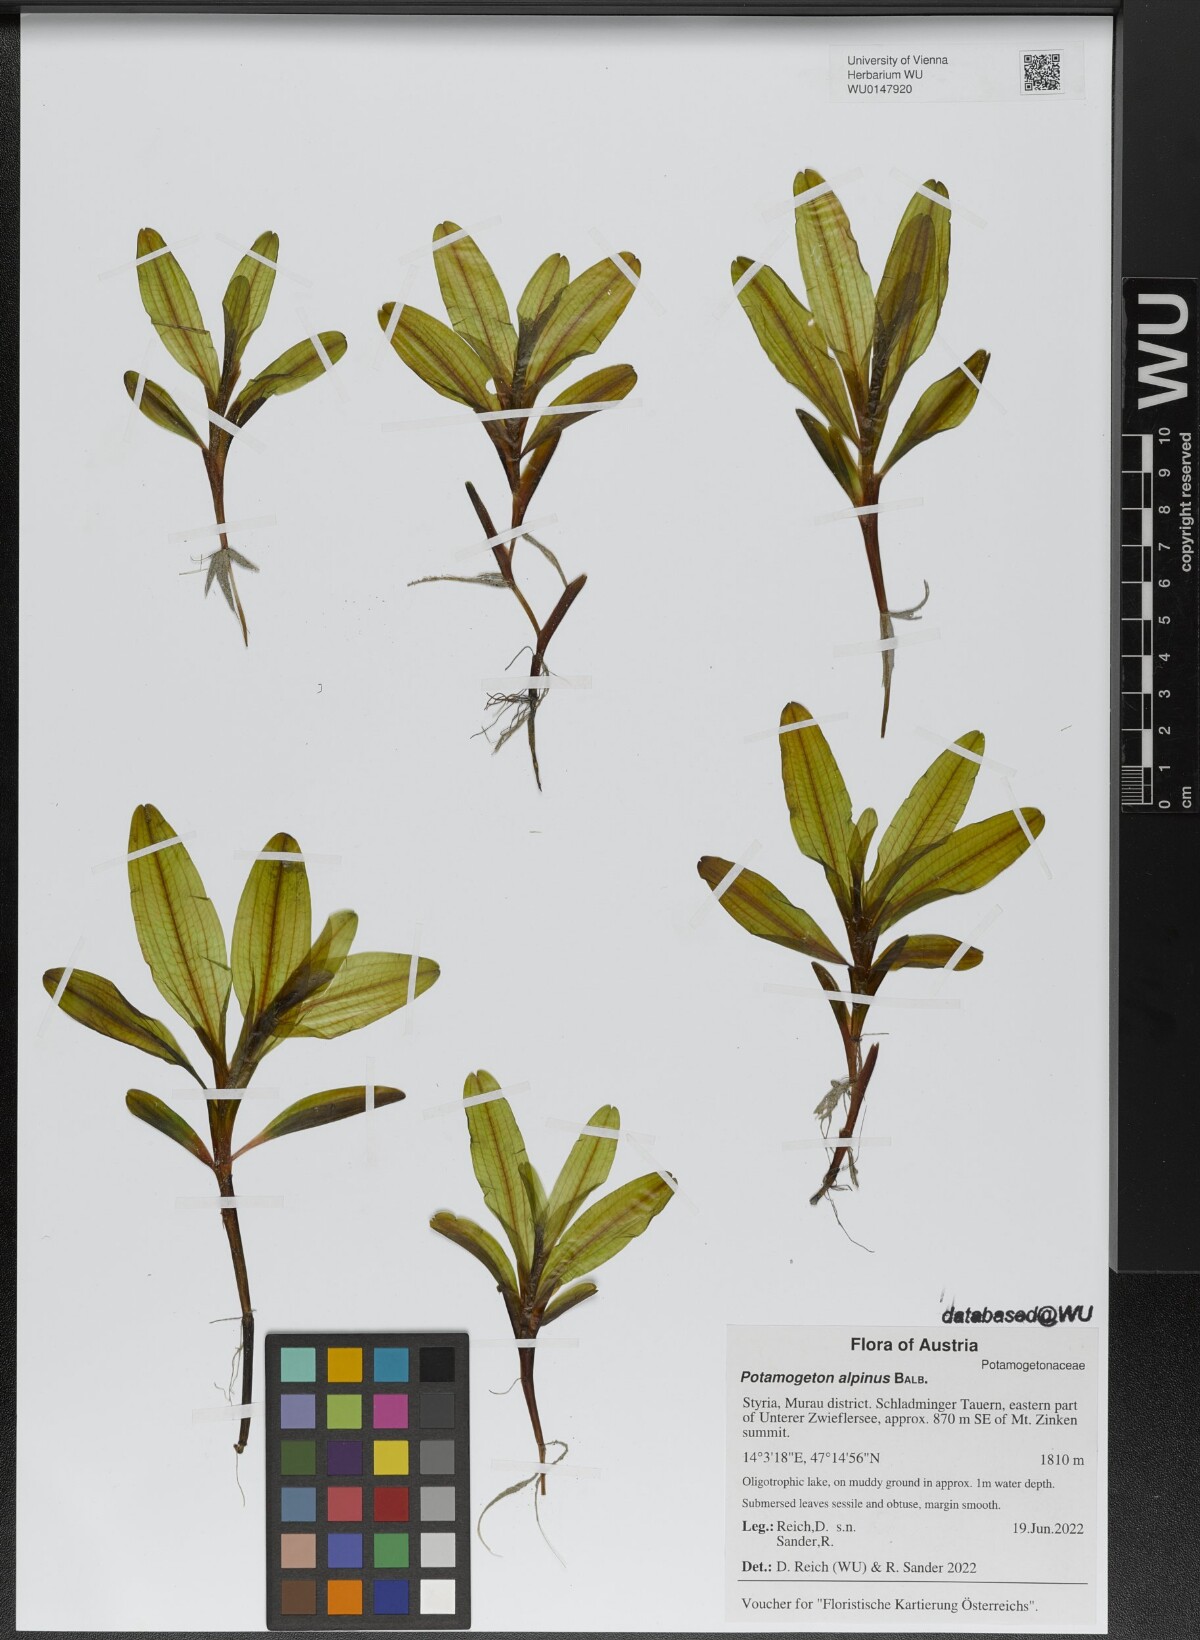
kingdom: Plantae
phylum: Tracheophyta
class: Liliopsida
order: Alismatales
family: Potamogetonaceae
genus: Potamogeton
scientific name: Potamogeton alpinus
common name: Red pondweed
